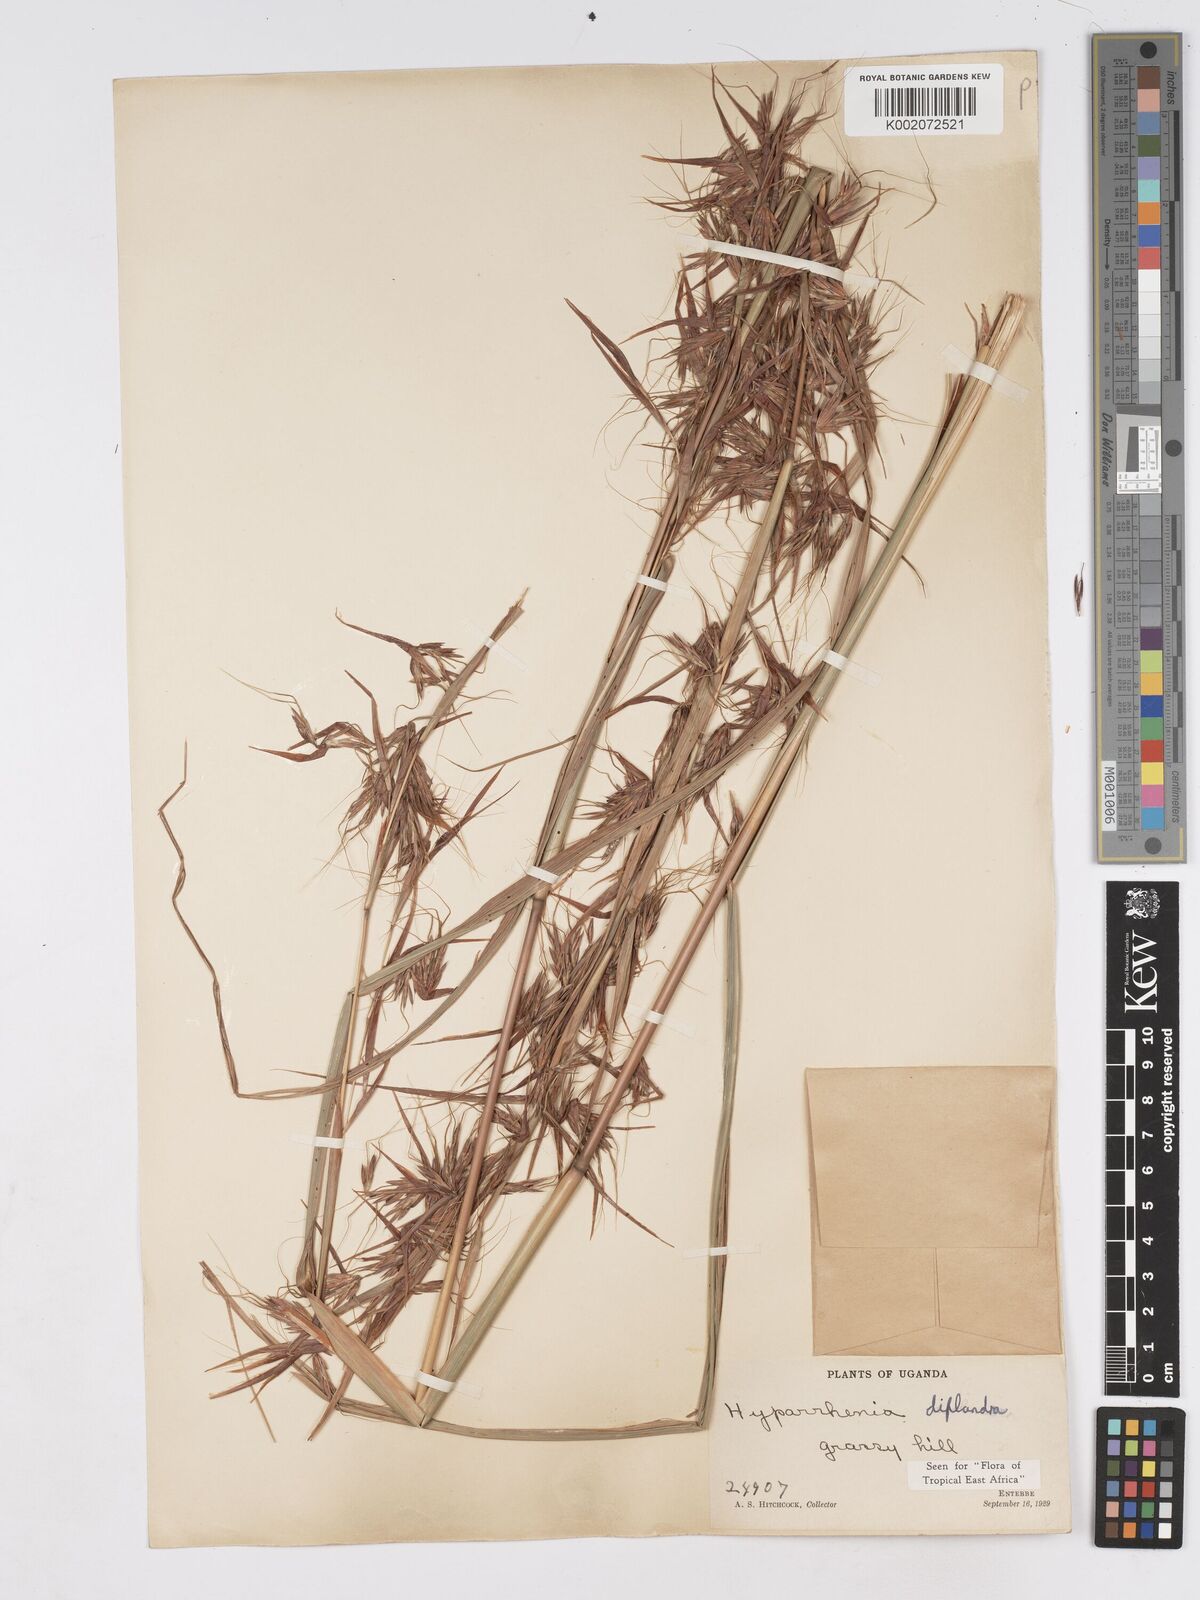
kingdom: Plantae
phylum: Tracheophyta
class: Liliopsida
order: Poales
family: Poaceae
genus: Hyparrhenia
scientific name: Hyparrhenia diplandra
